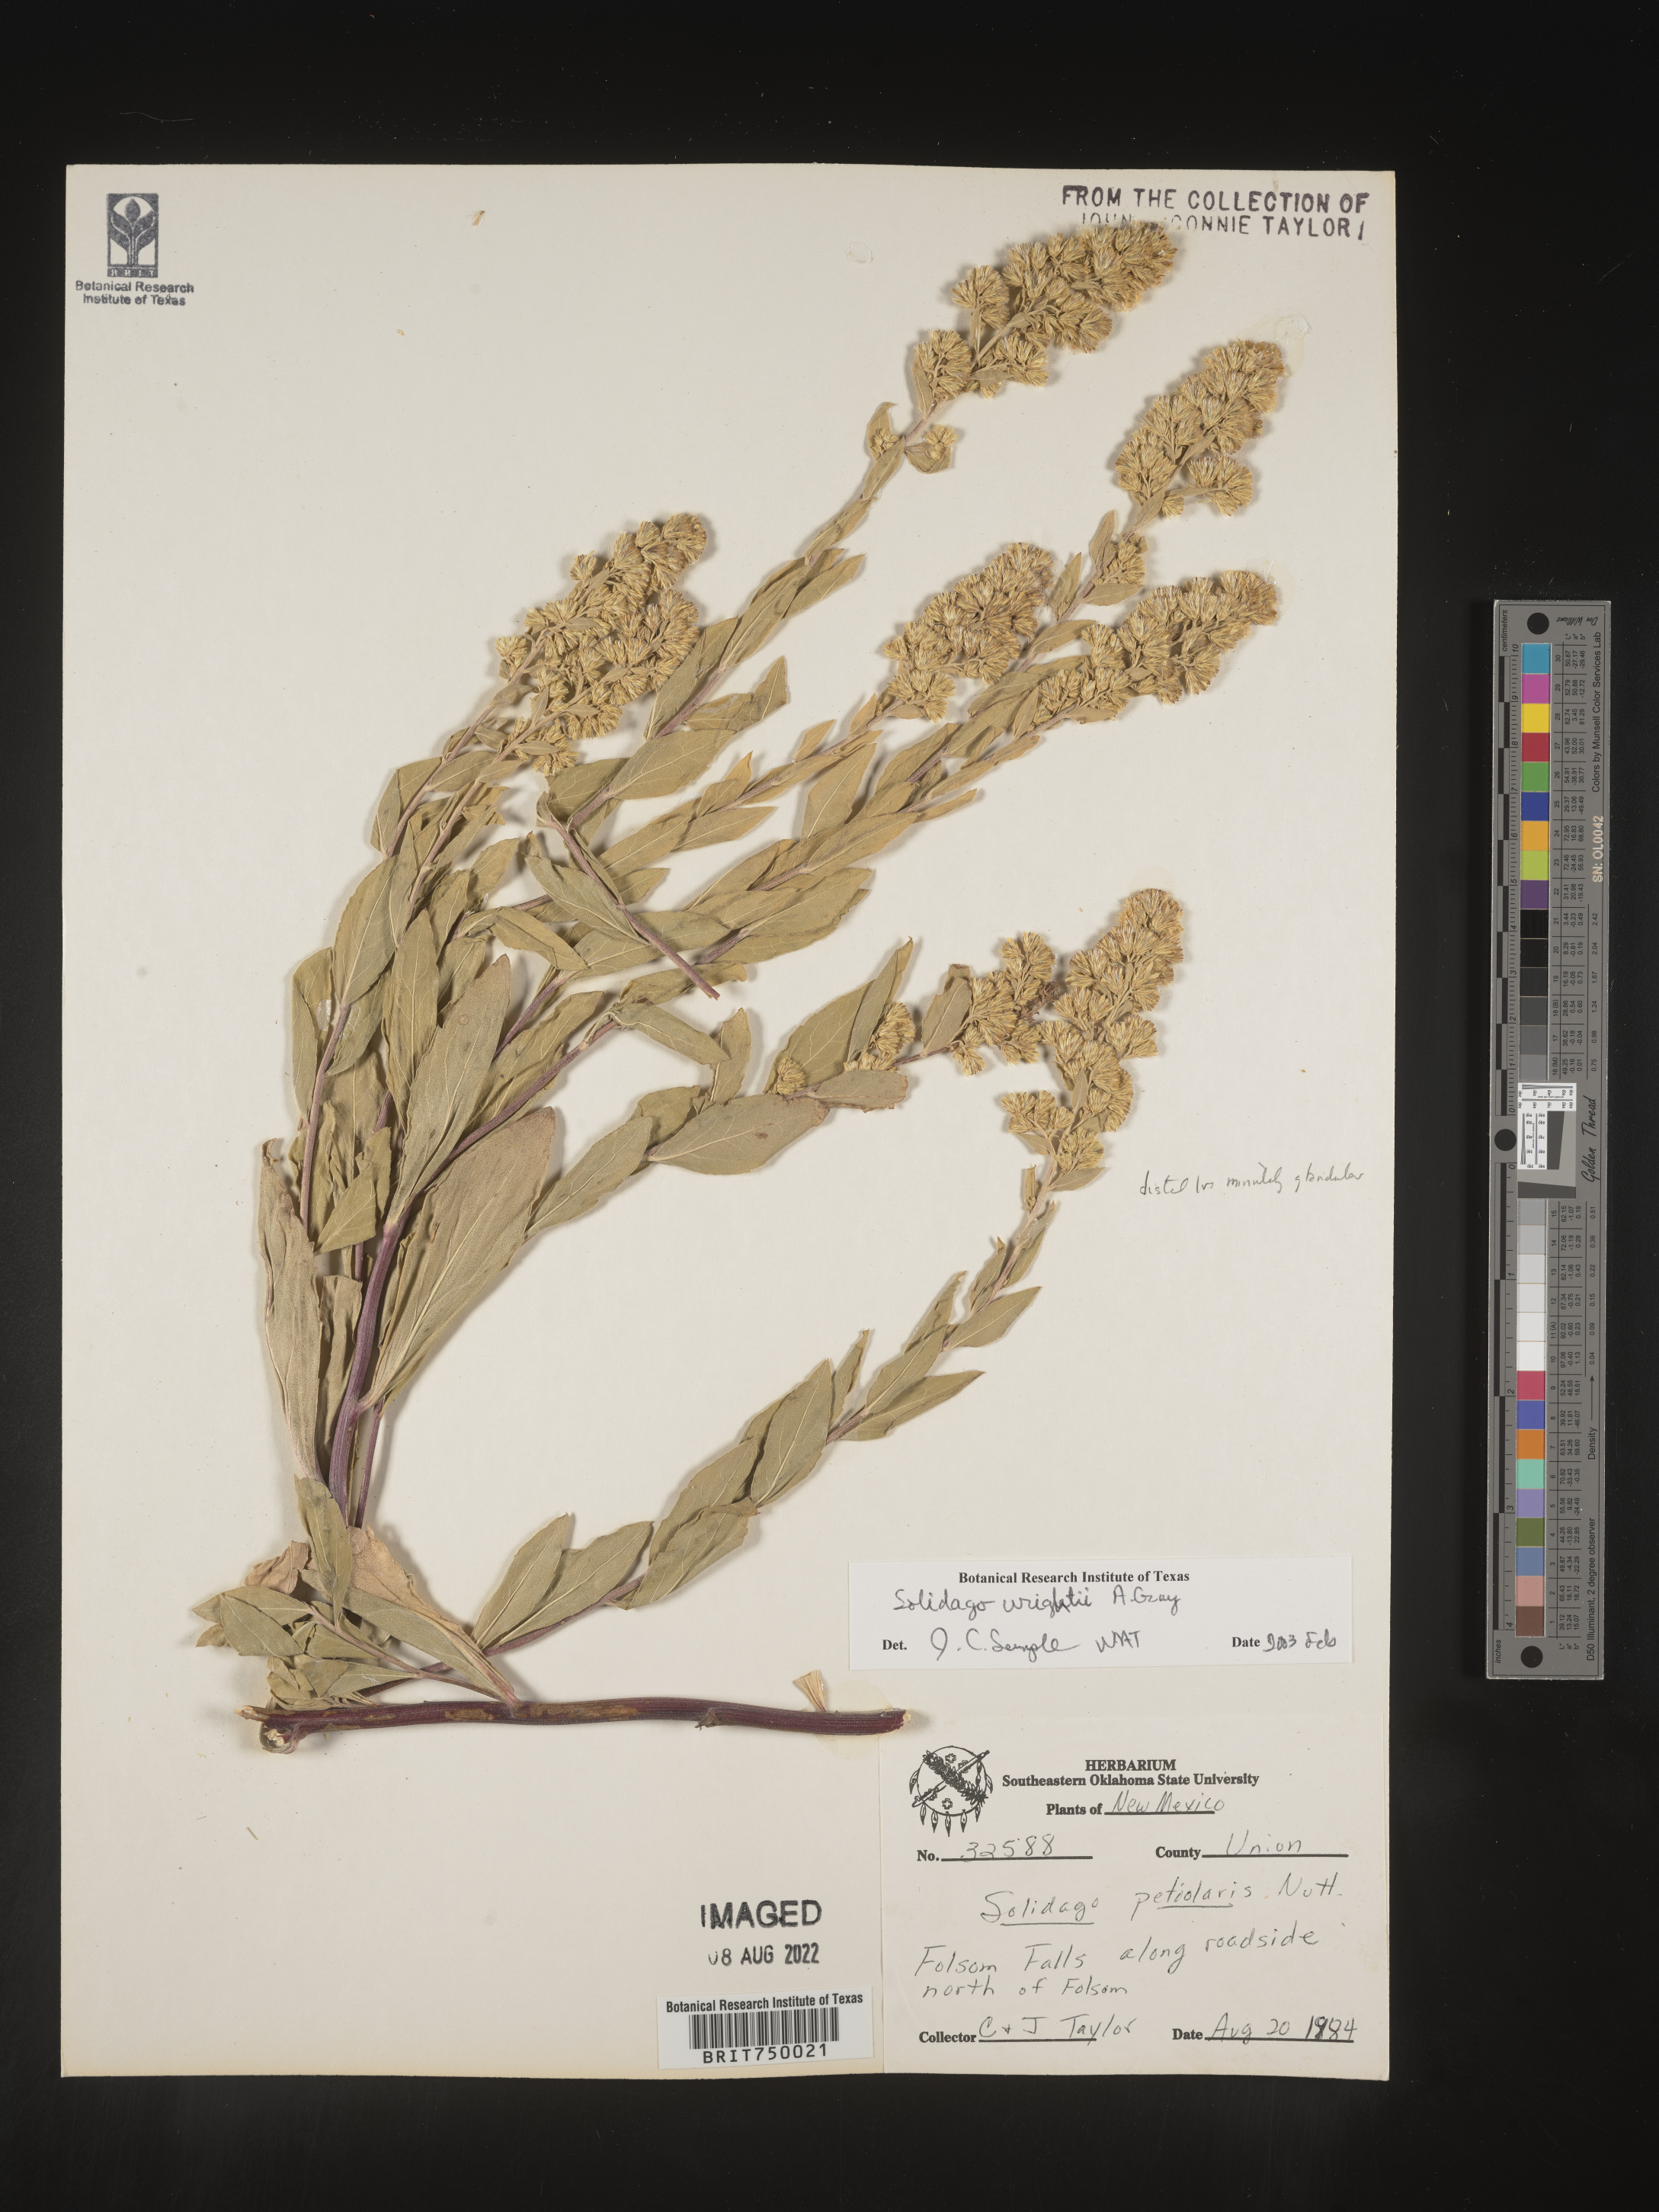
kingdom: Plantae
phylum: Tracheophyta
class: Magnoliopsida
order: Asterales
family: Asteraceae
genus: Solidago
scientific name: Solidago wrightii
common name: Wright's goldenrod
